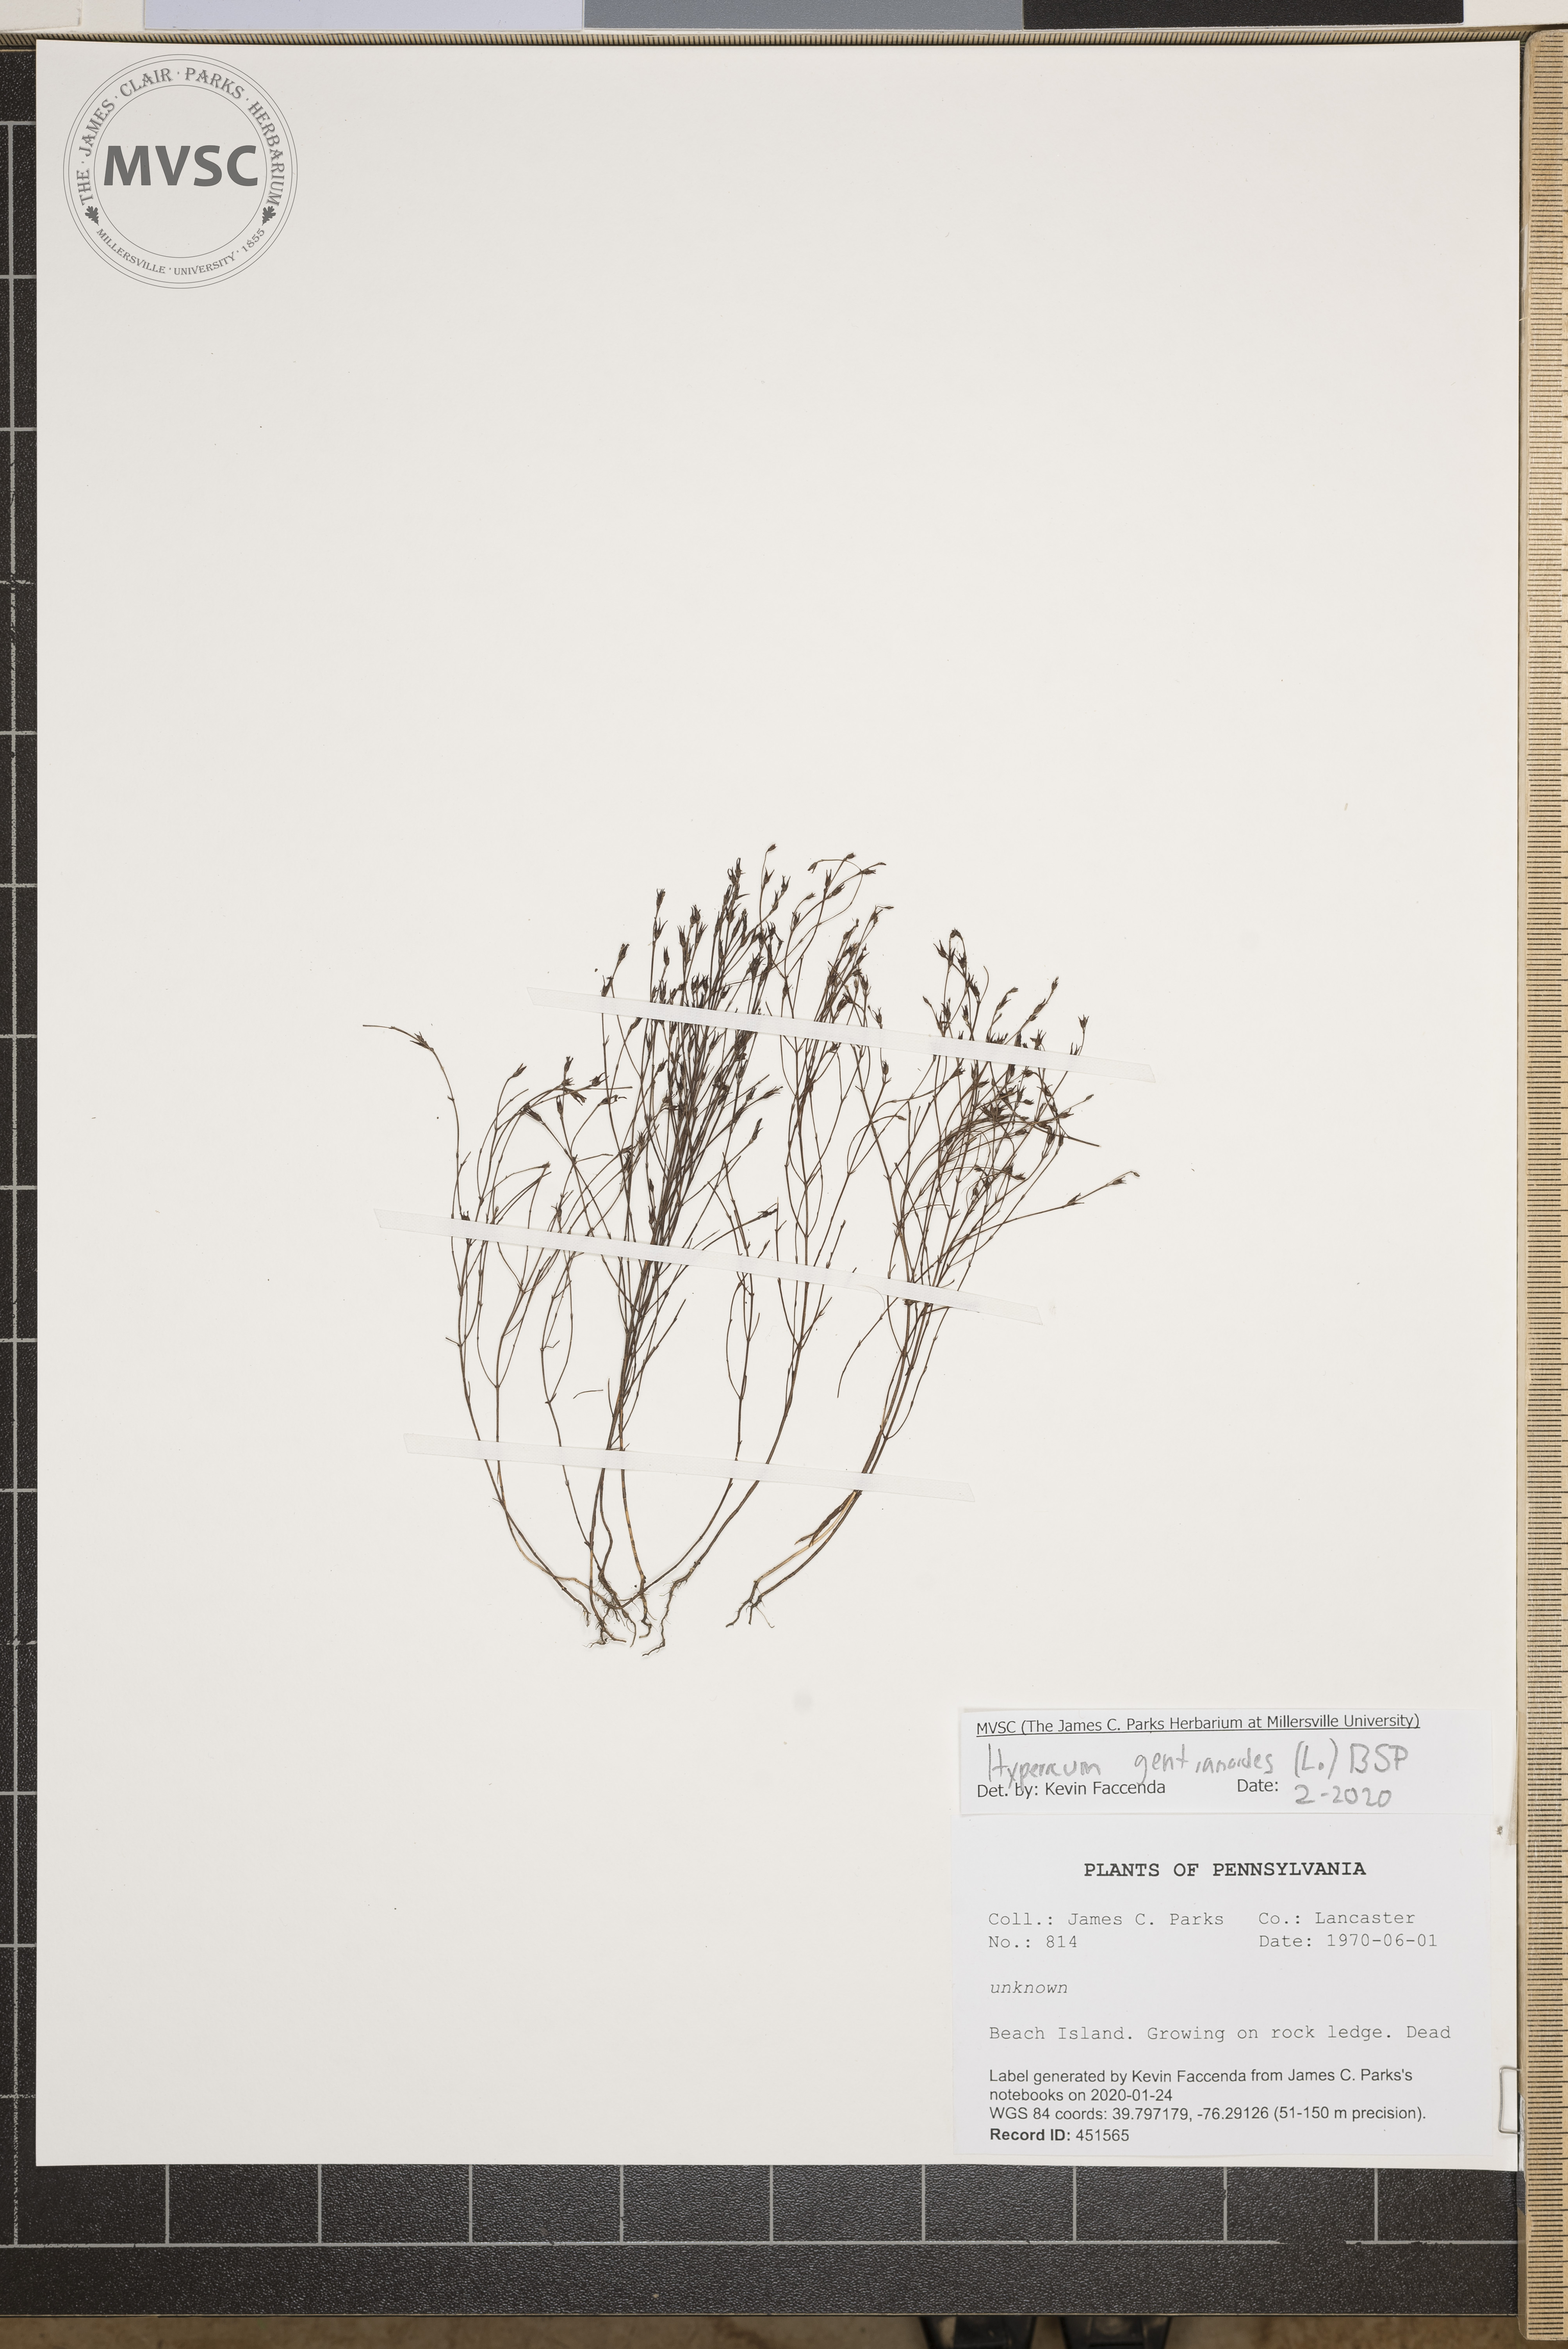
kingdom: Plantae
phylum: Tracheophyta
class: Magnoliopsida
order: Malpighiales
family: Hypericaceae
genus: Hypericum
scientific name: Hypericum gentianoides
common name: Gentian-leaved st. john's-wort
